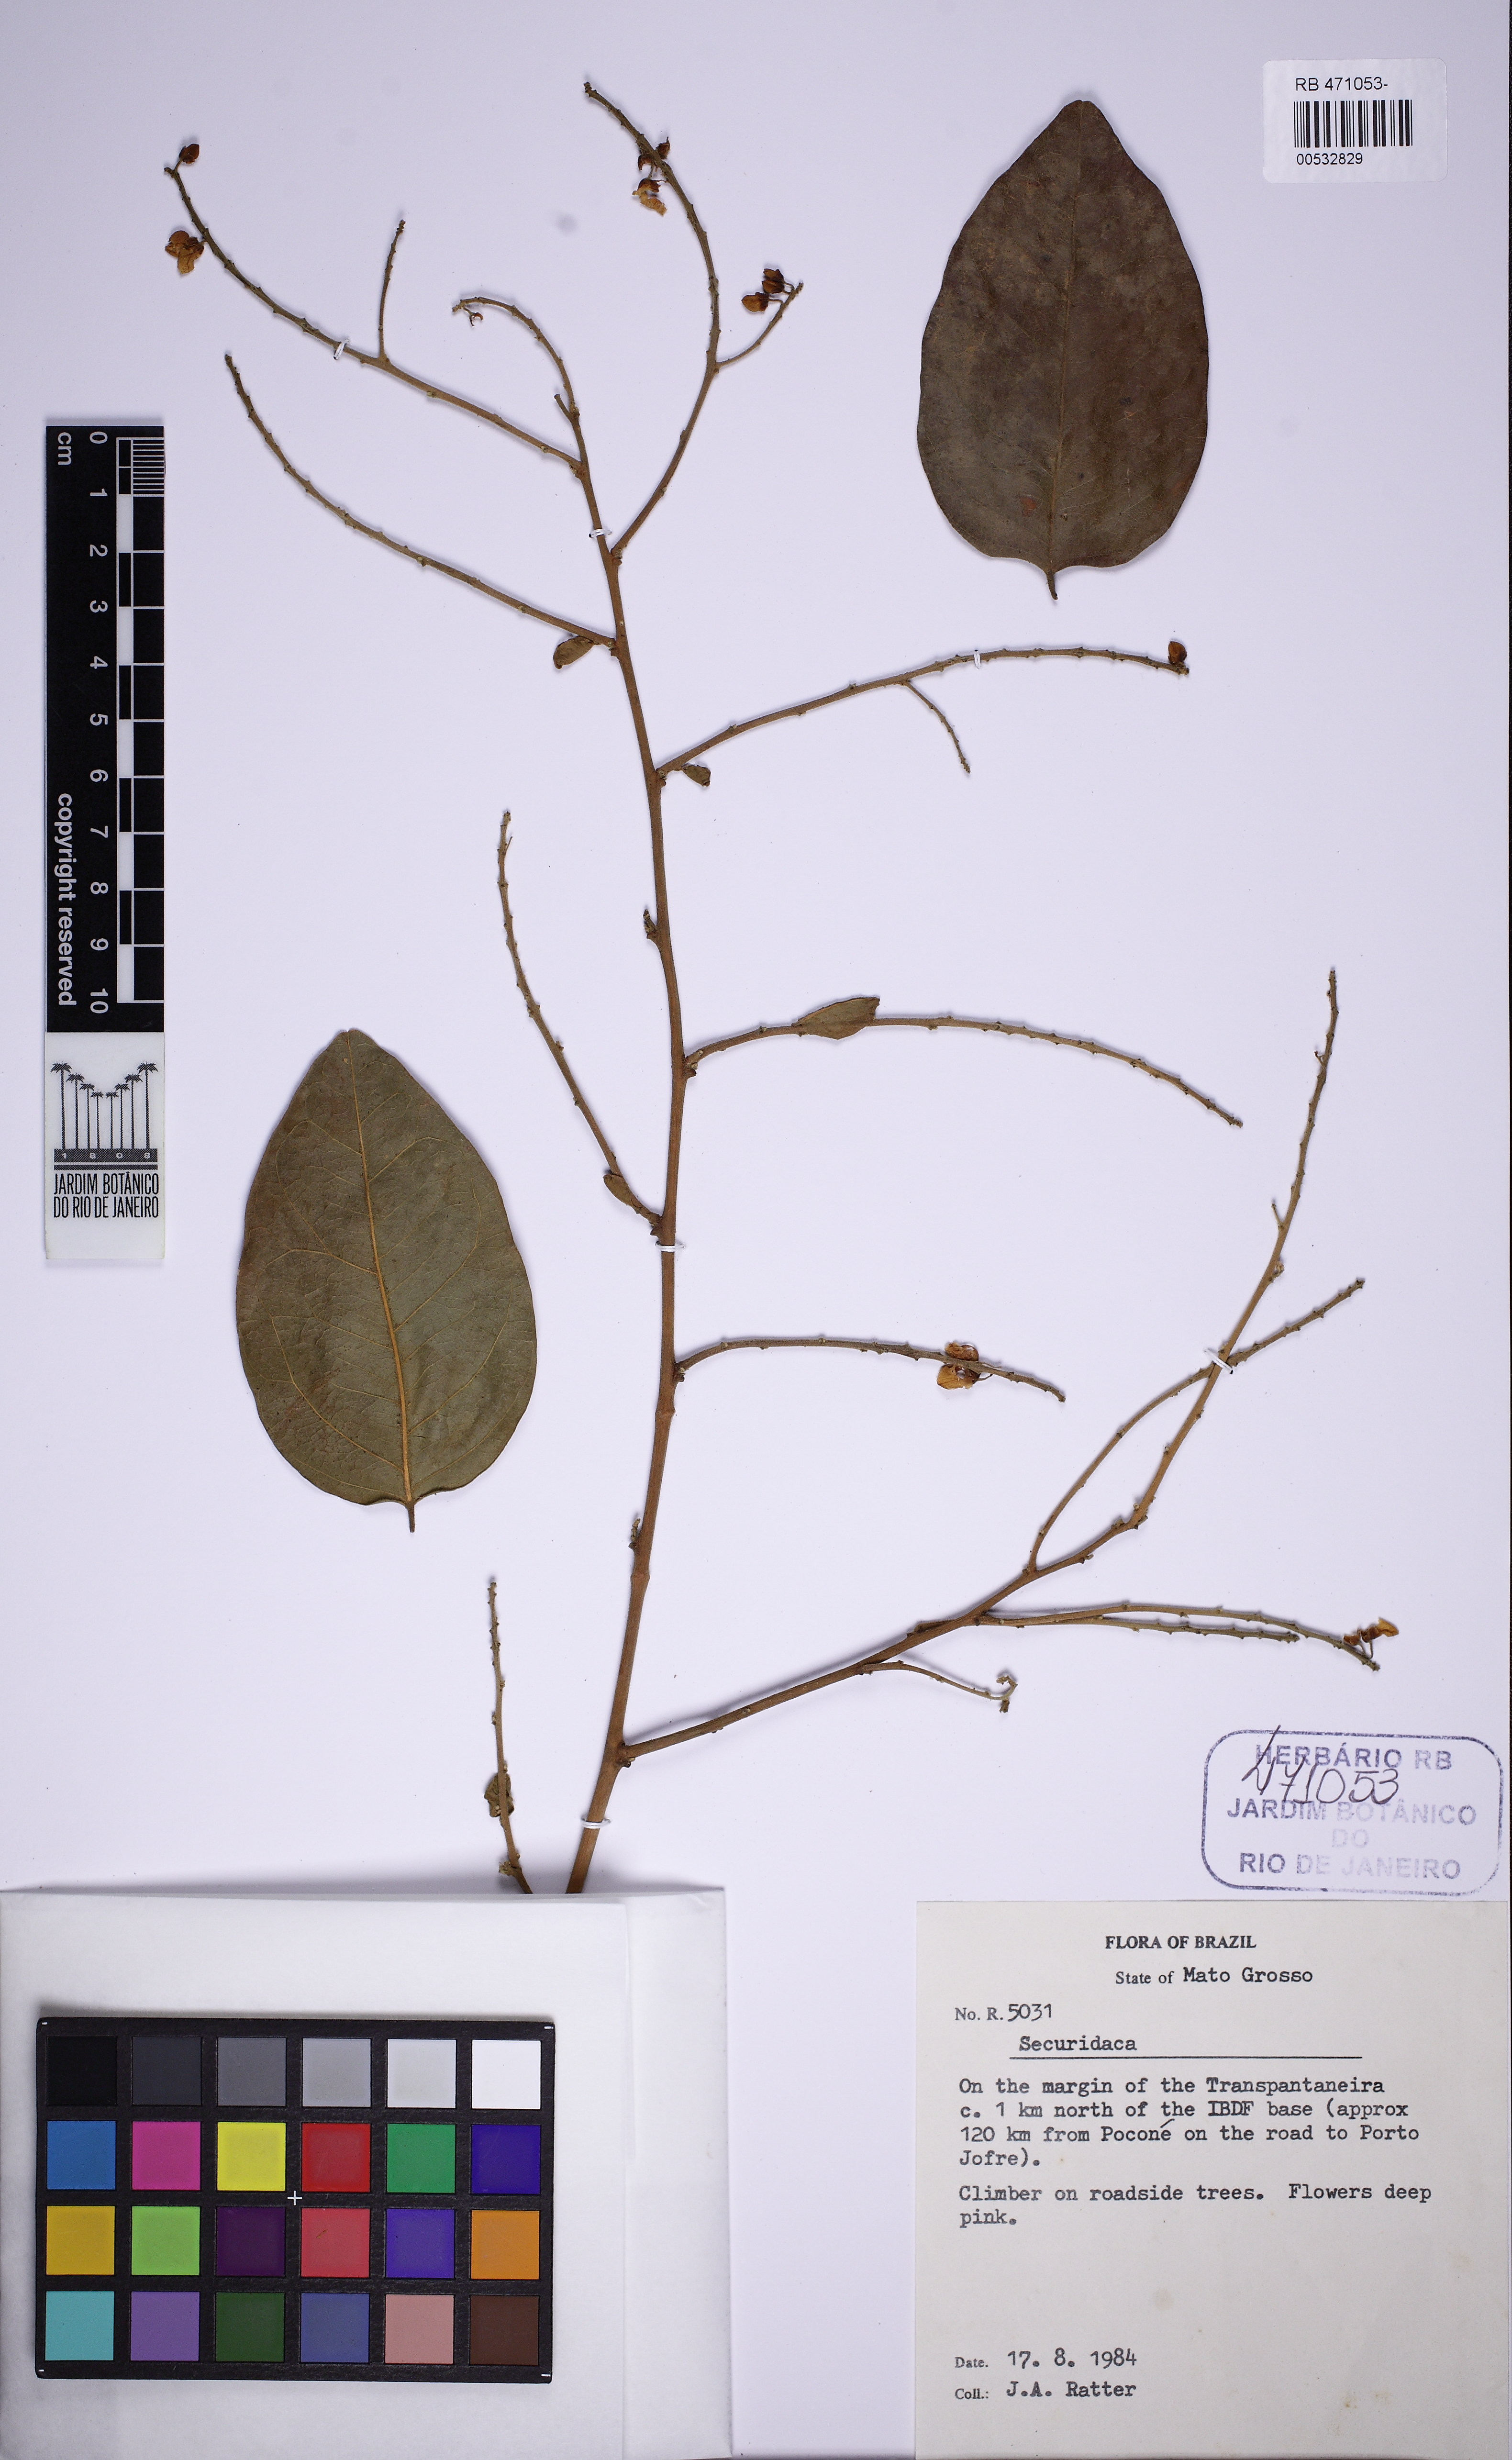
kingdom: Plantae
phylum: Tracheophyta
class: Magnoliopsida
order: Fabales
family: Polygalaceae
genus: Securidaca
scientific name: Securidaca
